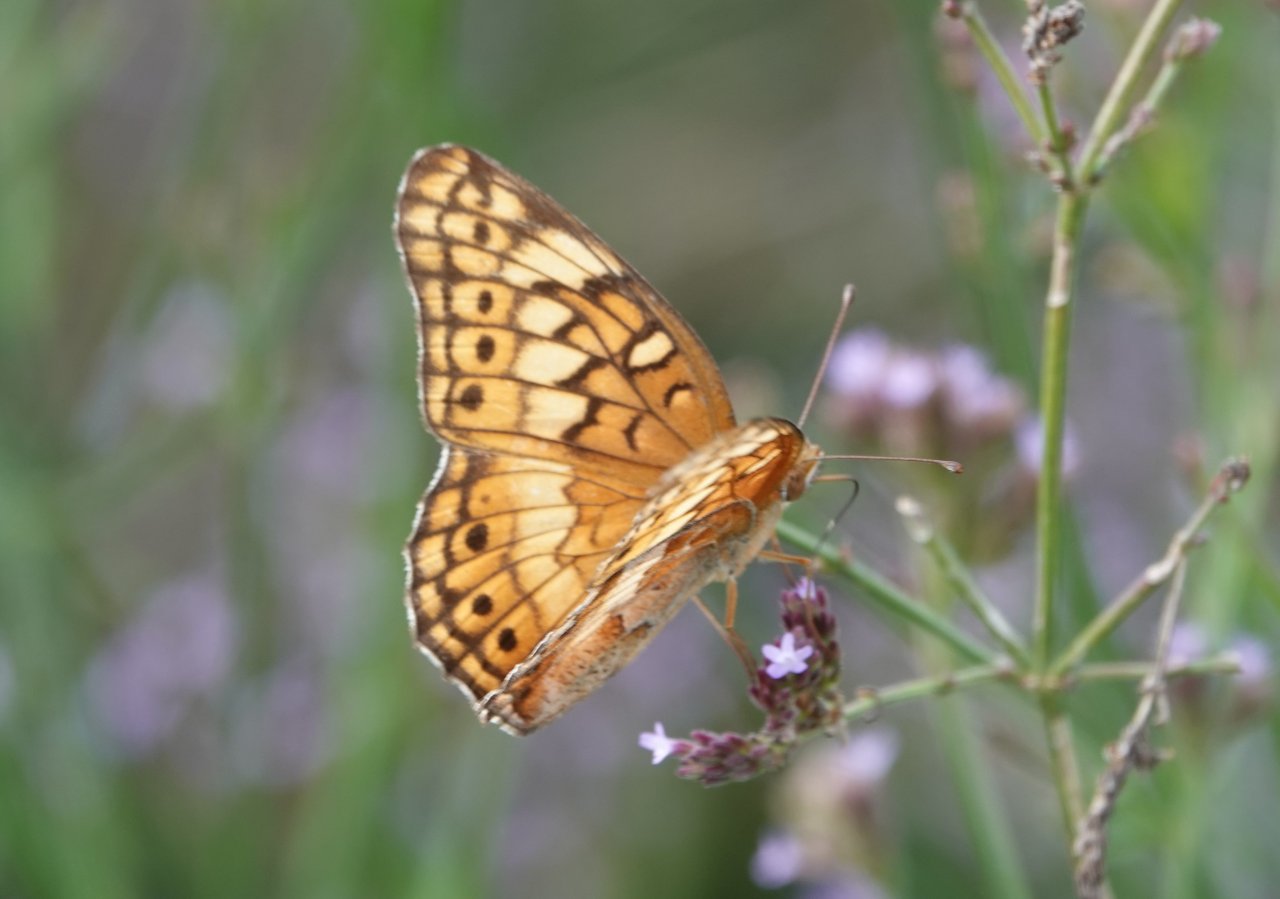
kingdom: Animalia
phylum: Arthropoda
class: Insecta
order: Lepidoptera
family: Nymphalidae
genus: Euptoieta
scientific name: Euptoieta claudia
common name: Variegated Fritillary
